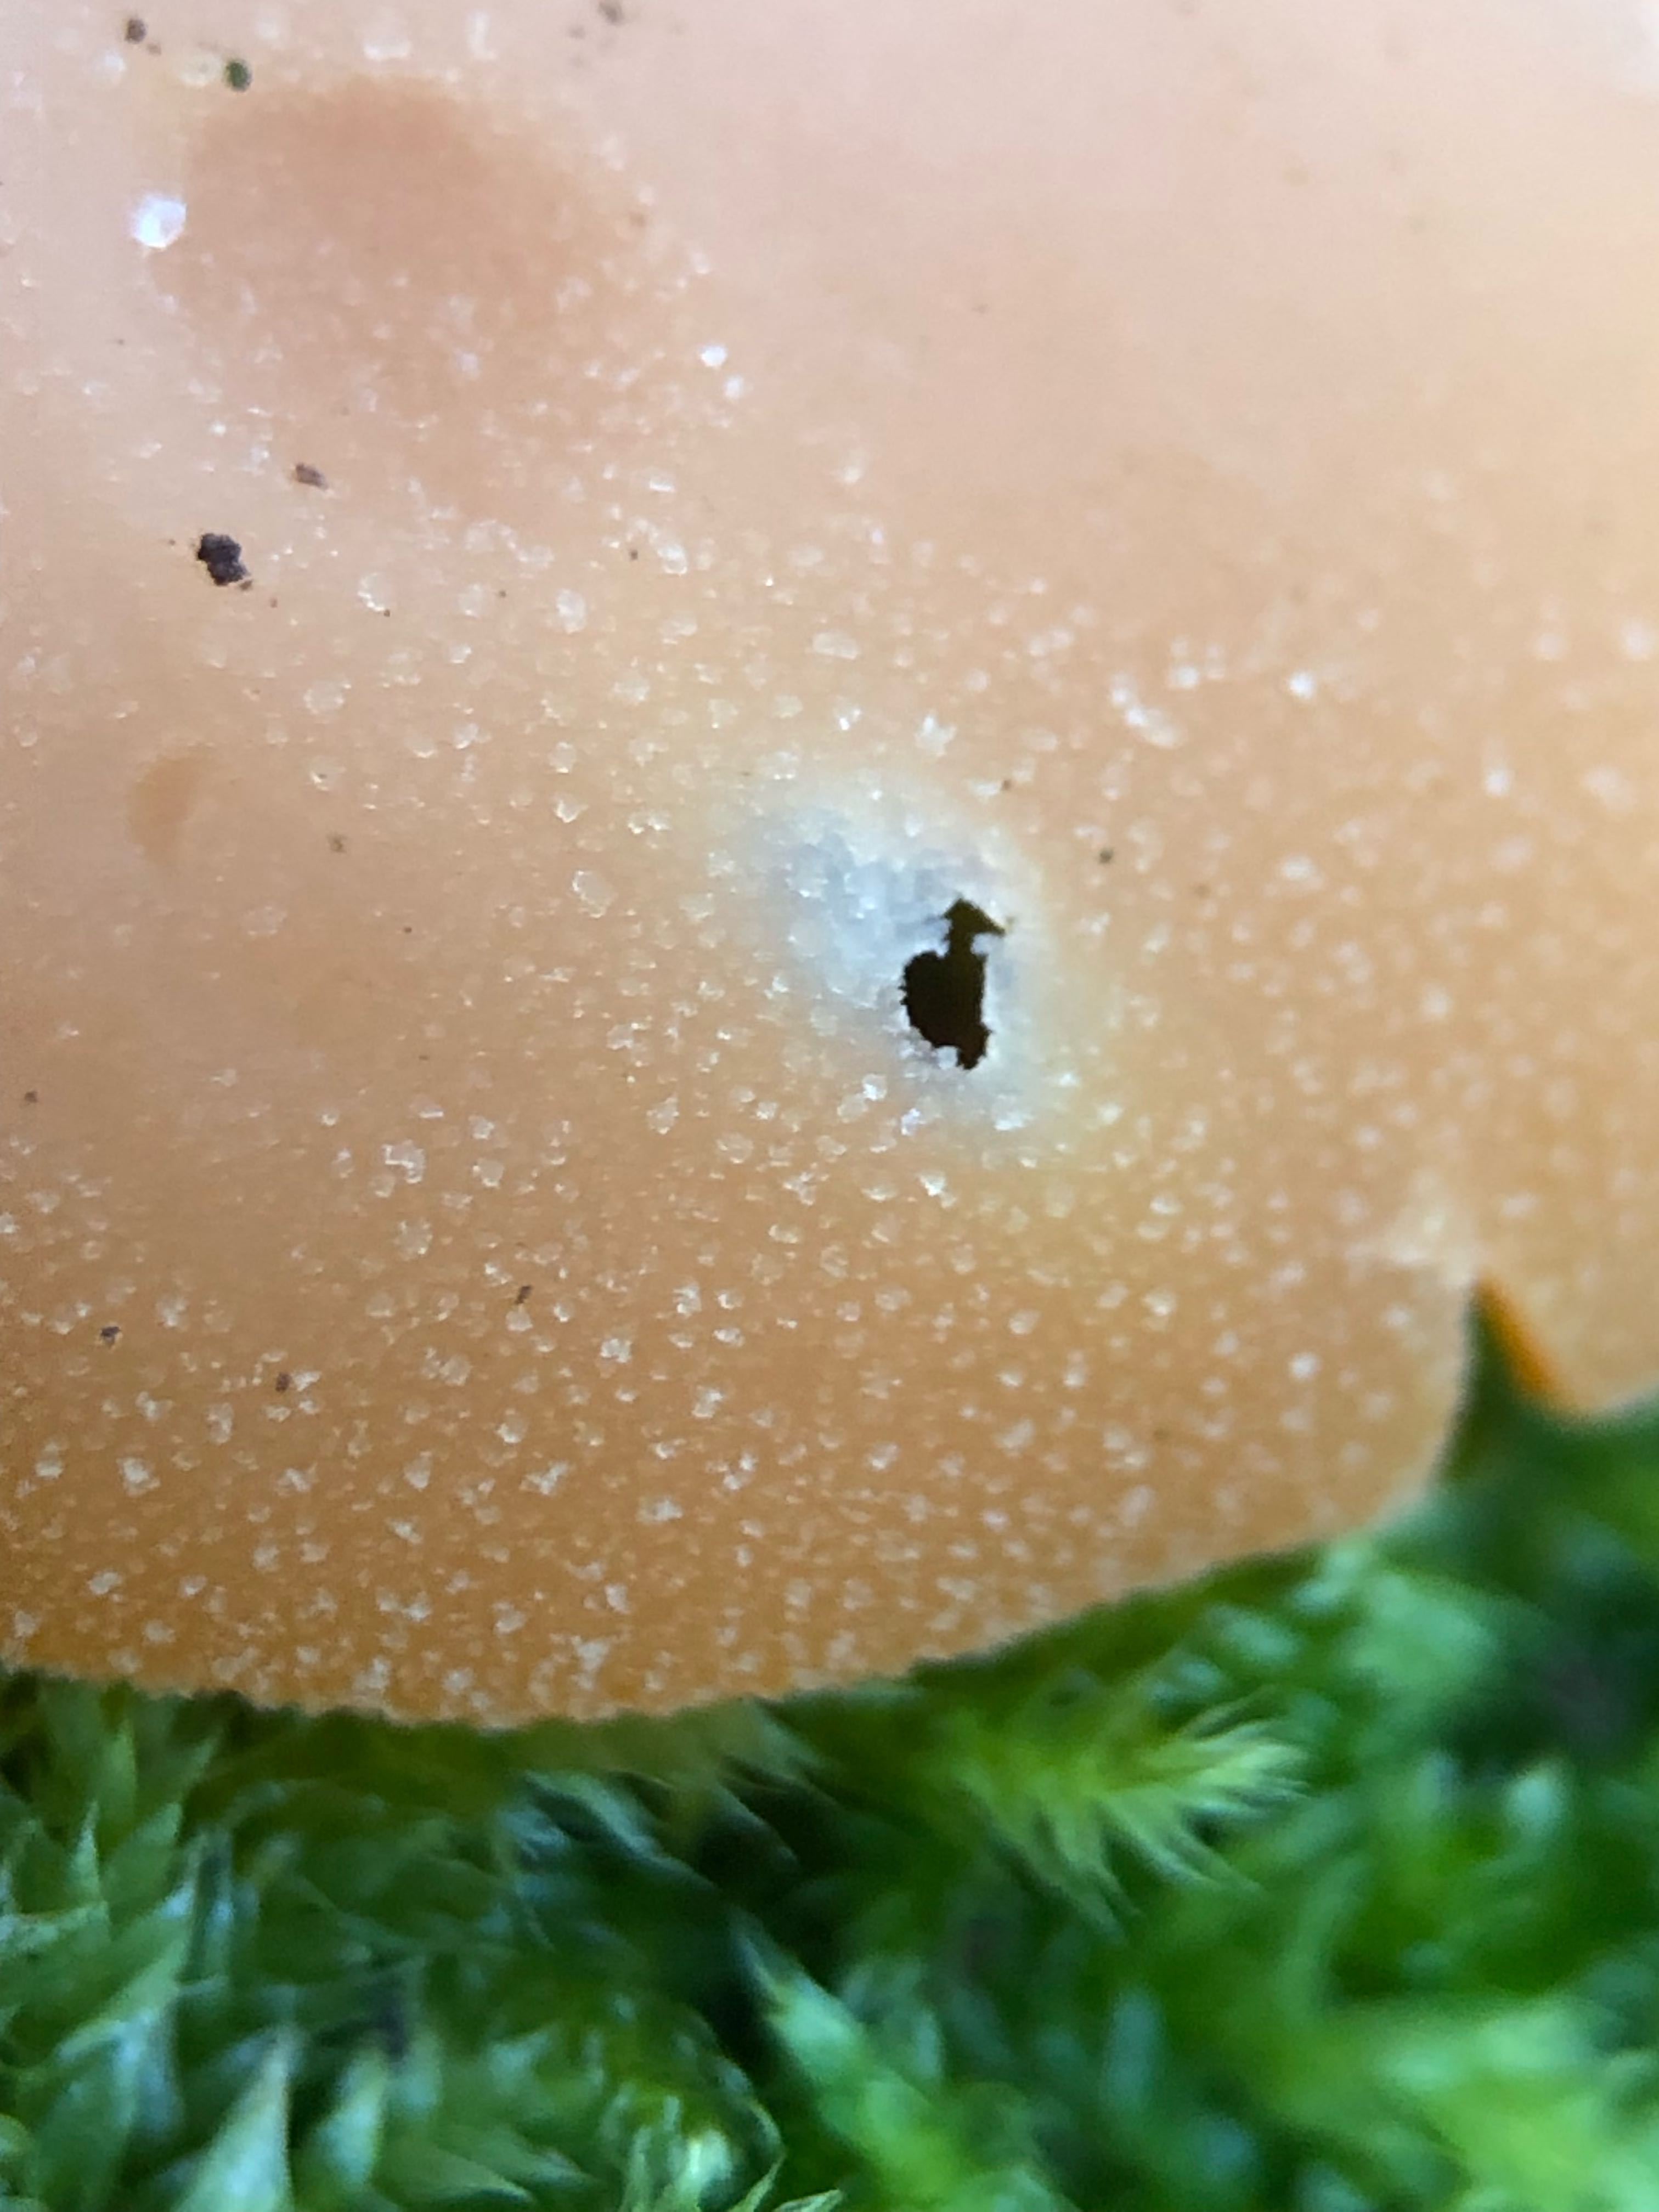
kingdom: Fungi
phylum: Ascomycota
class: Pezizomycetes
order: Pezizales
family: Pyronemataceae
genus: Aleuria
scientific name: Aleuria aurantia
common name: almindelig orangebæger
